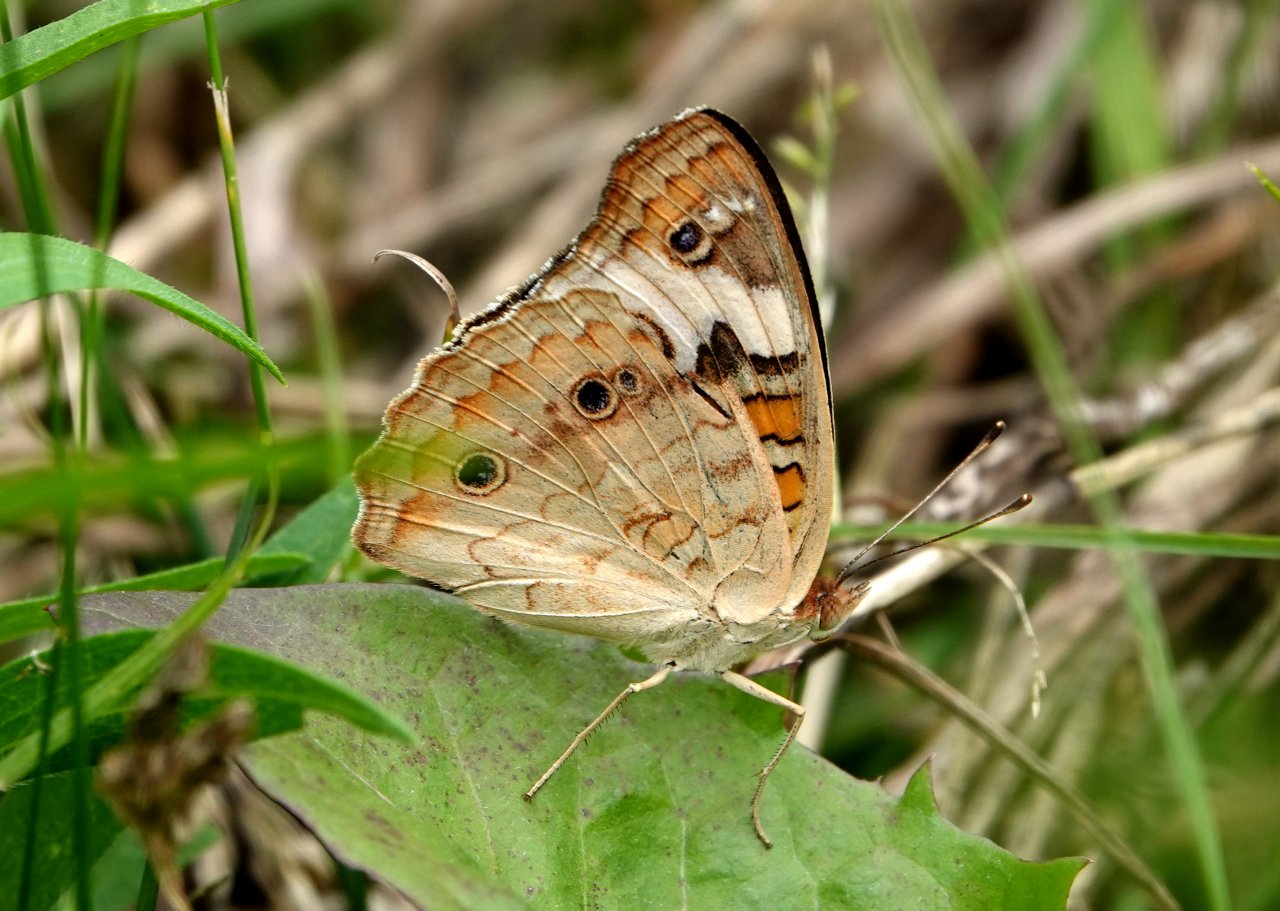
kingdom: Animalia
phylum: Arthropoda
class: Insecta
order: Lepidoptera
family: Nymphalidae
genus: Junonia
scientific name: Junonia coenia
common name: Common Buckeye
